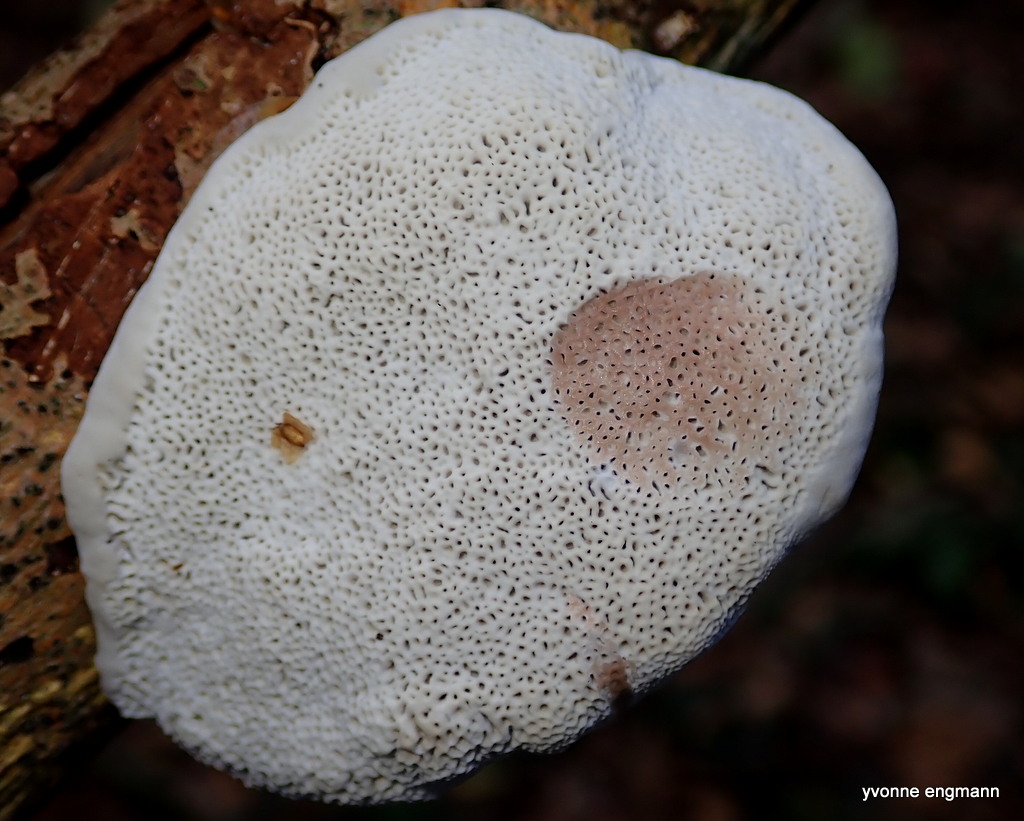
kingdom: Fungi
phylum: Basidiomycota
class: Agaricomycetes
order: Polyporales
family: Polyporaceae
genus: Daedaleopsis
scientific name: Daedaleopsis confragosa
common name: rødmende læderporesvamp
